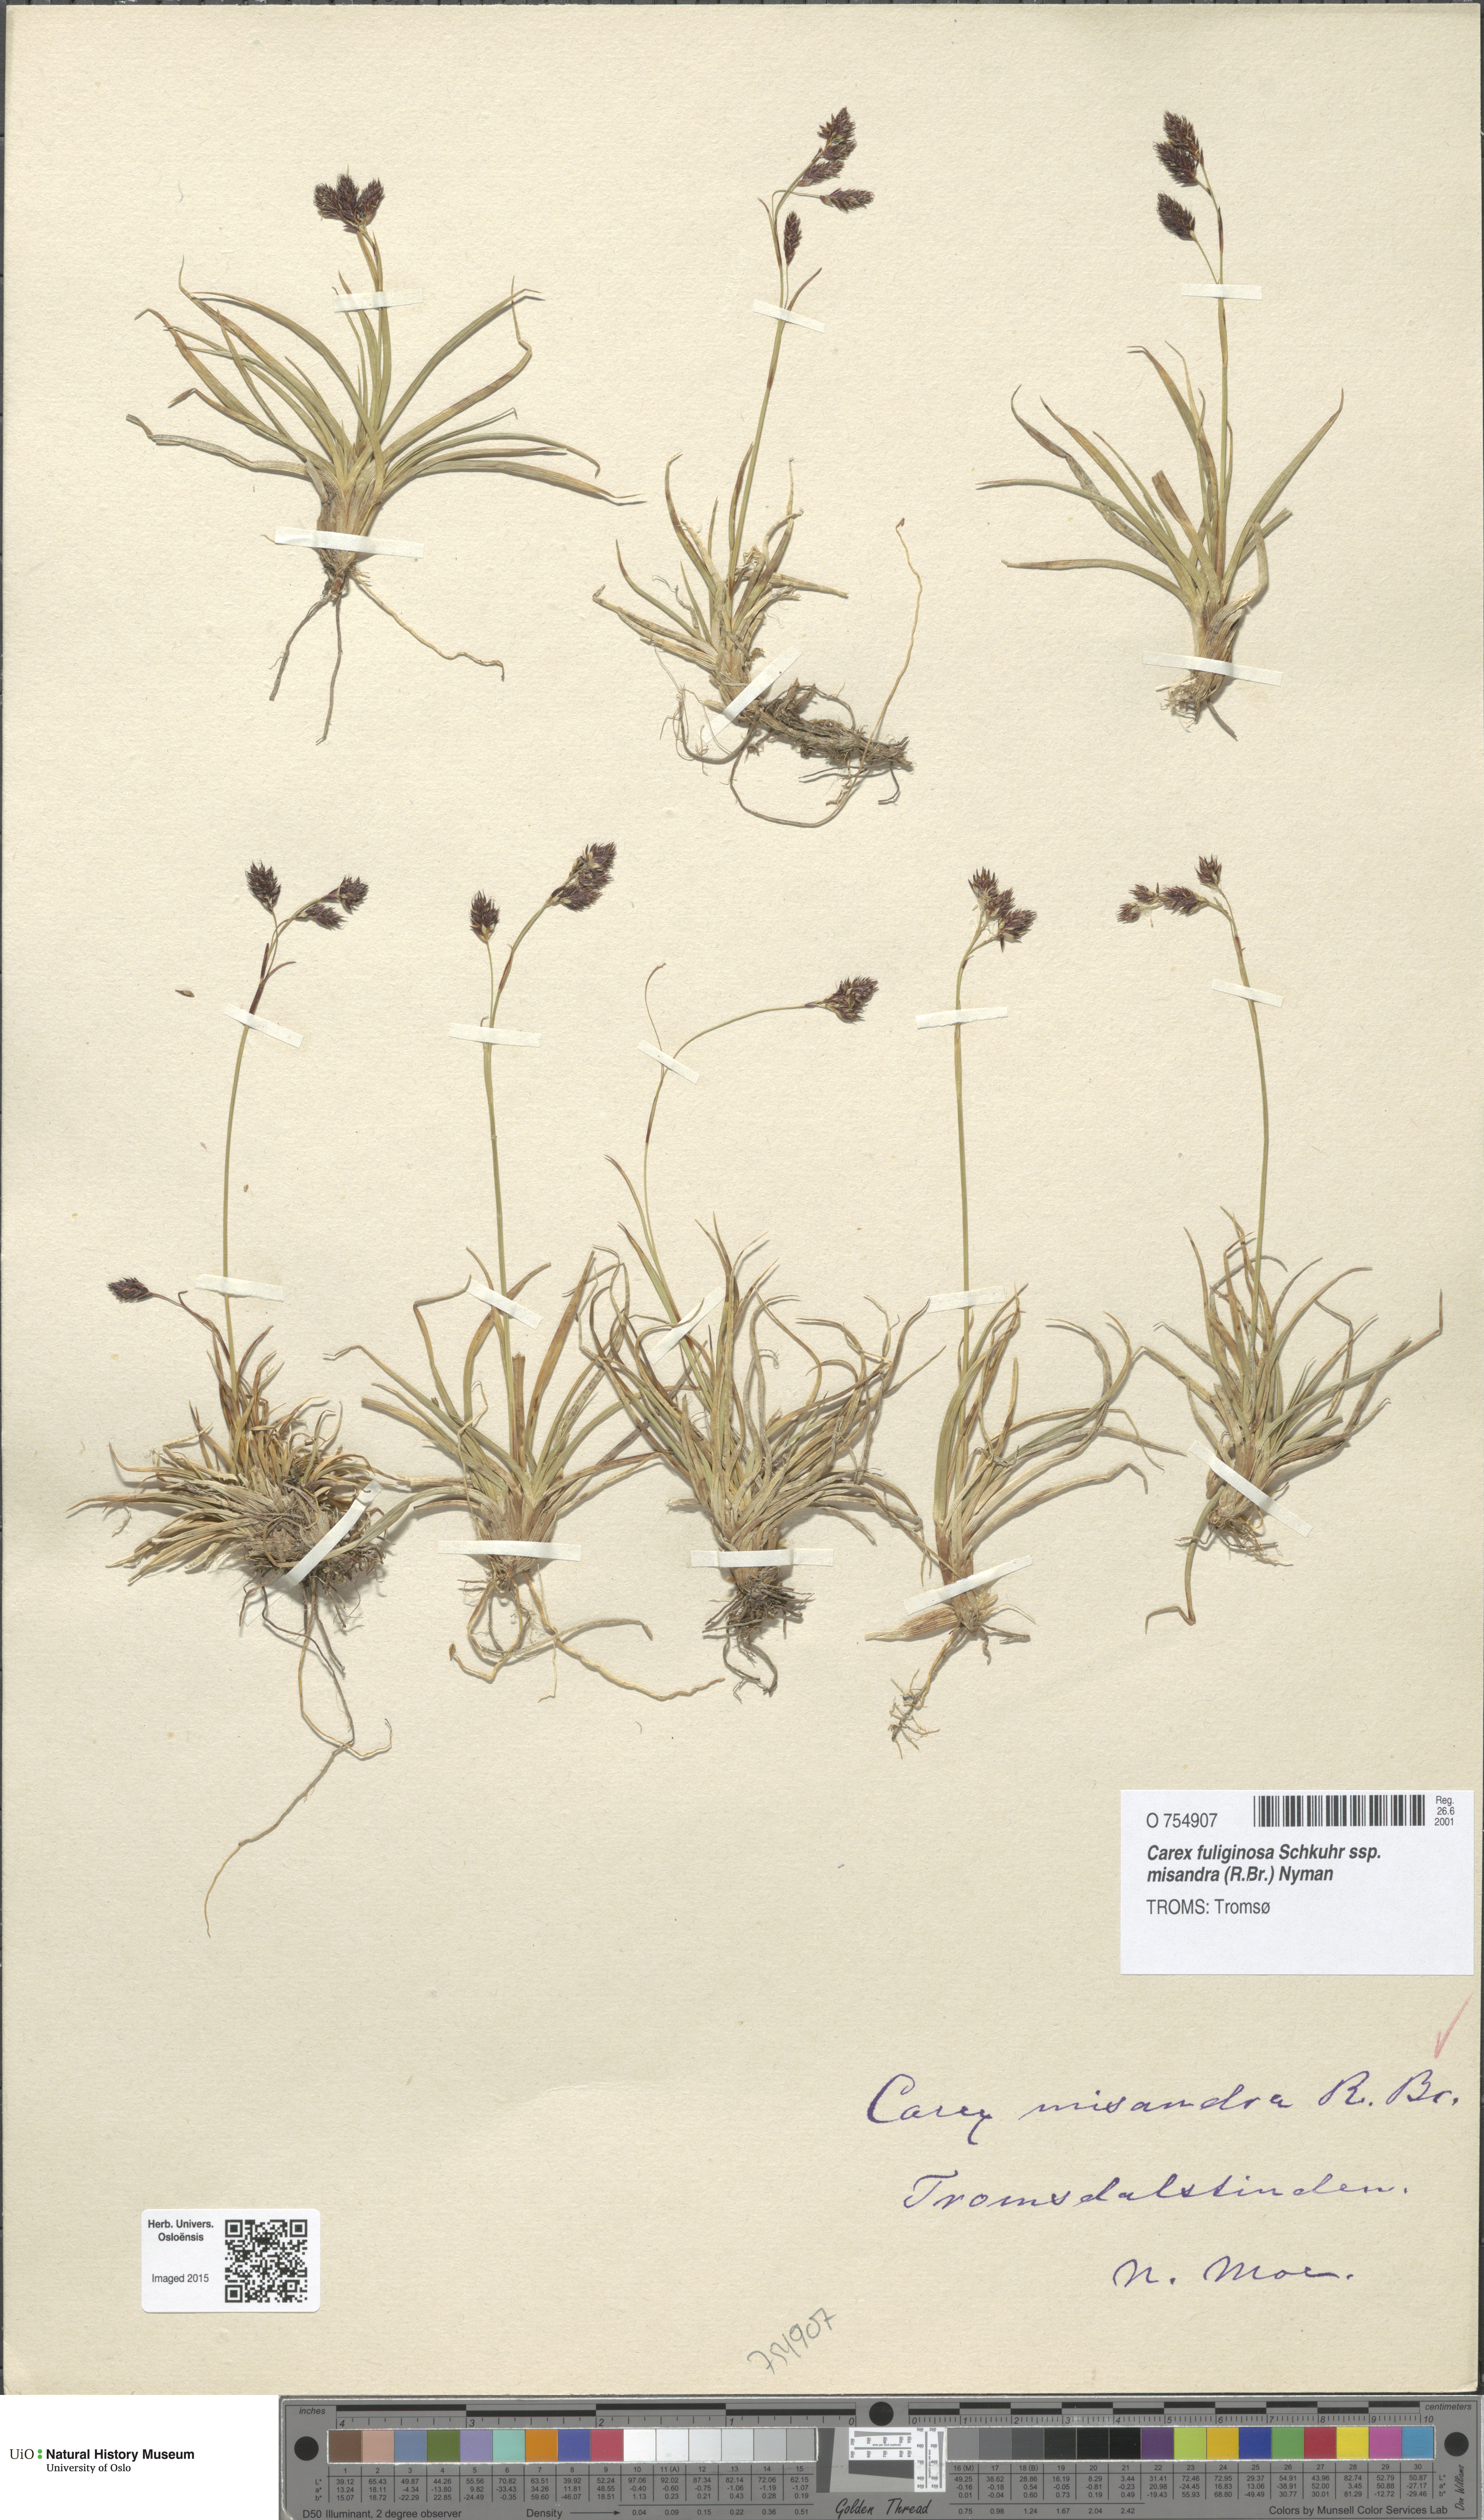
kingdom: Plantae
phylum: Tracheophyta
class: Liliopsida
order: Poales
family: Cyperaceae
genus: Carex
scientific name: Carex fuliginosa
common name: Few-flowered sedge
